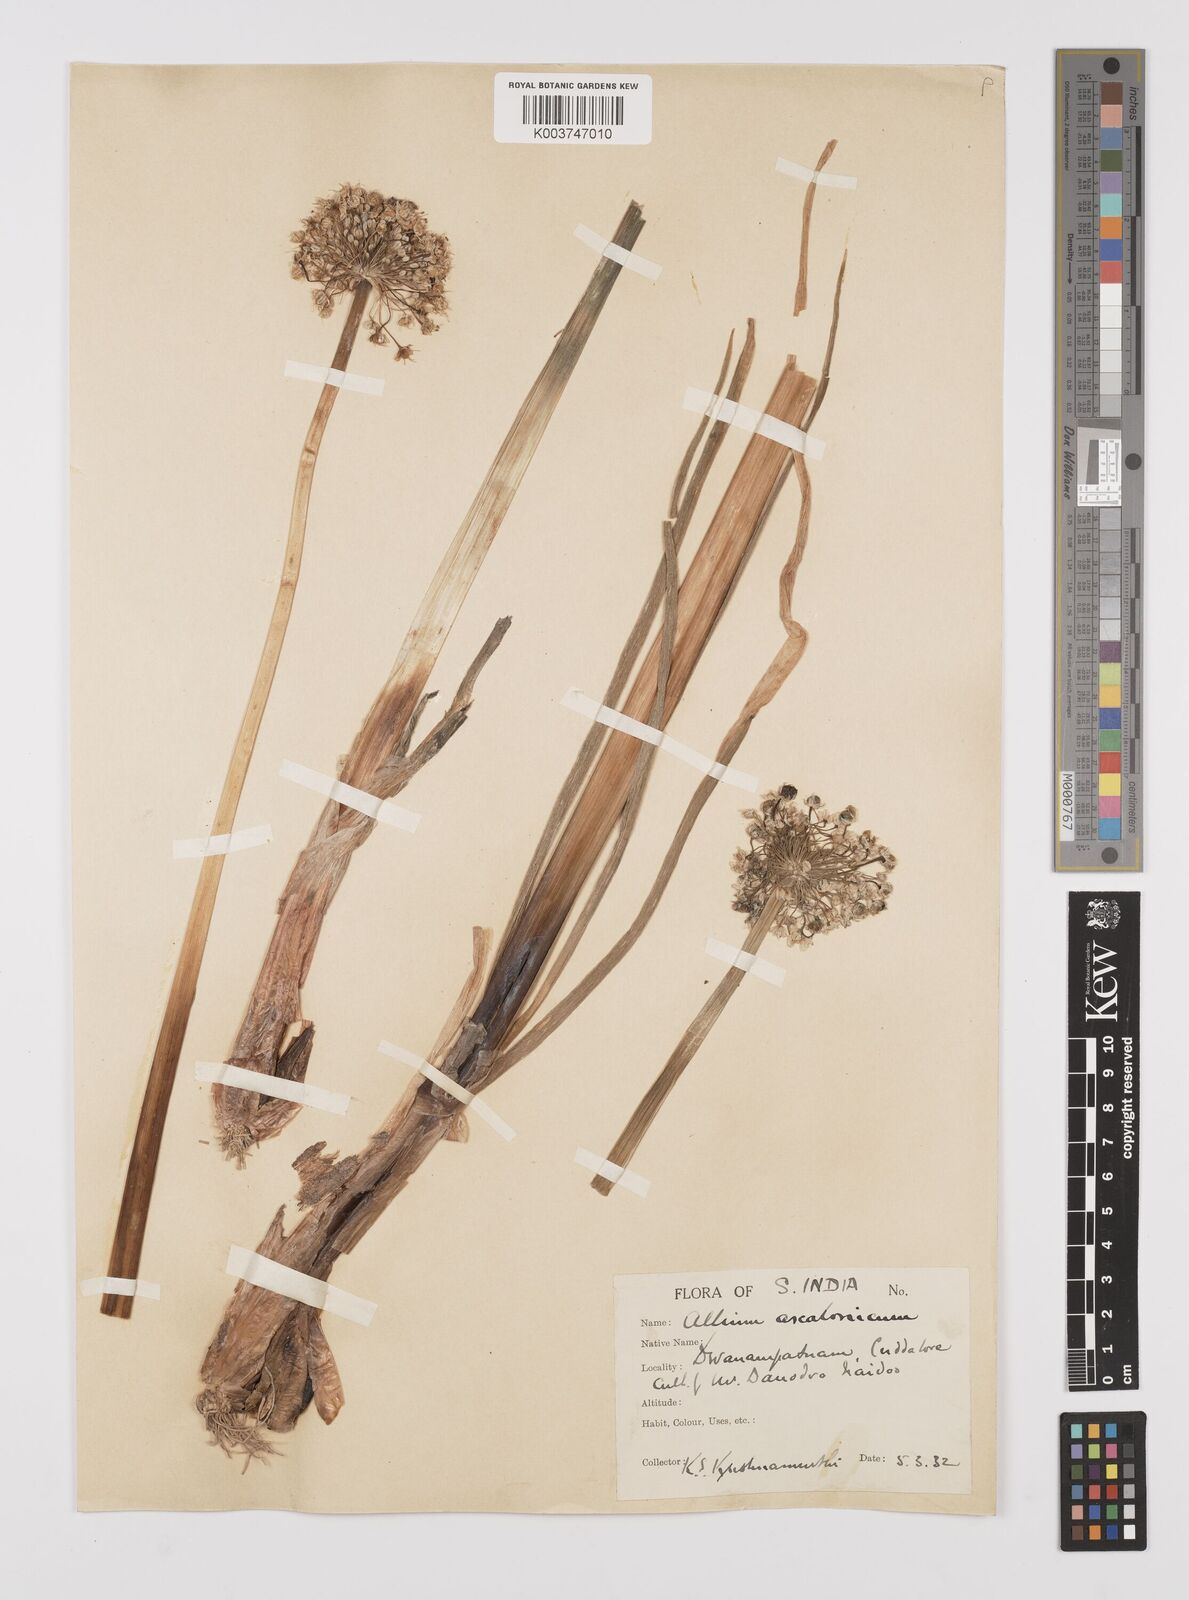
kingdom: Plantae
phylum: Tracheophyta
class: Liliopsida
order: Asparagales
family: Amaryllidaceae
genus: Allium
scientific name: Allium ascalonicum
